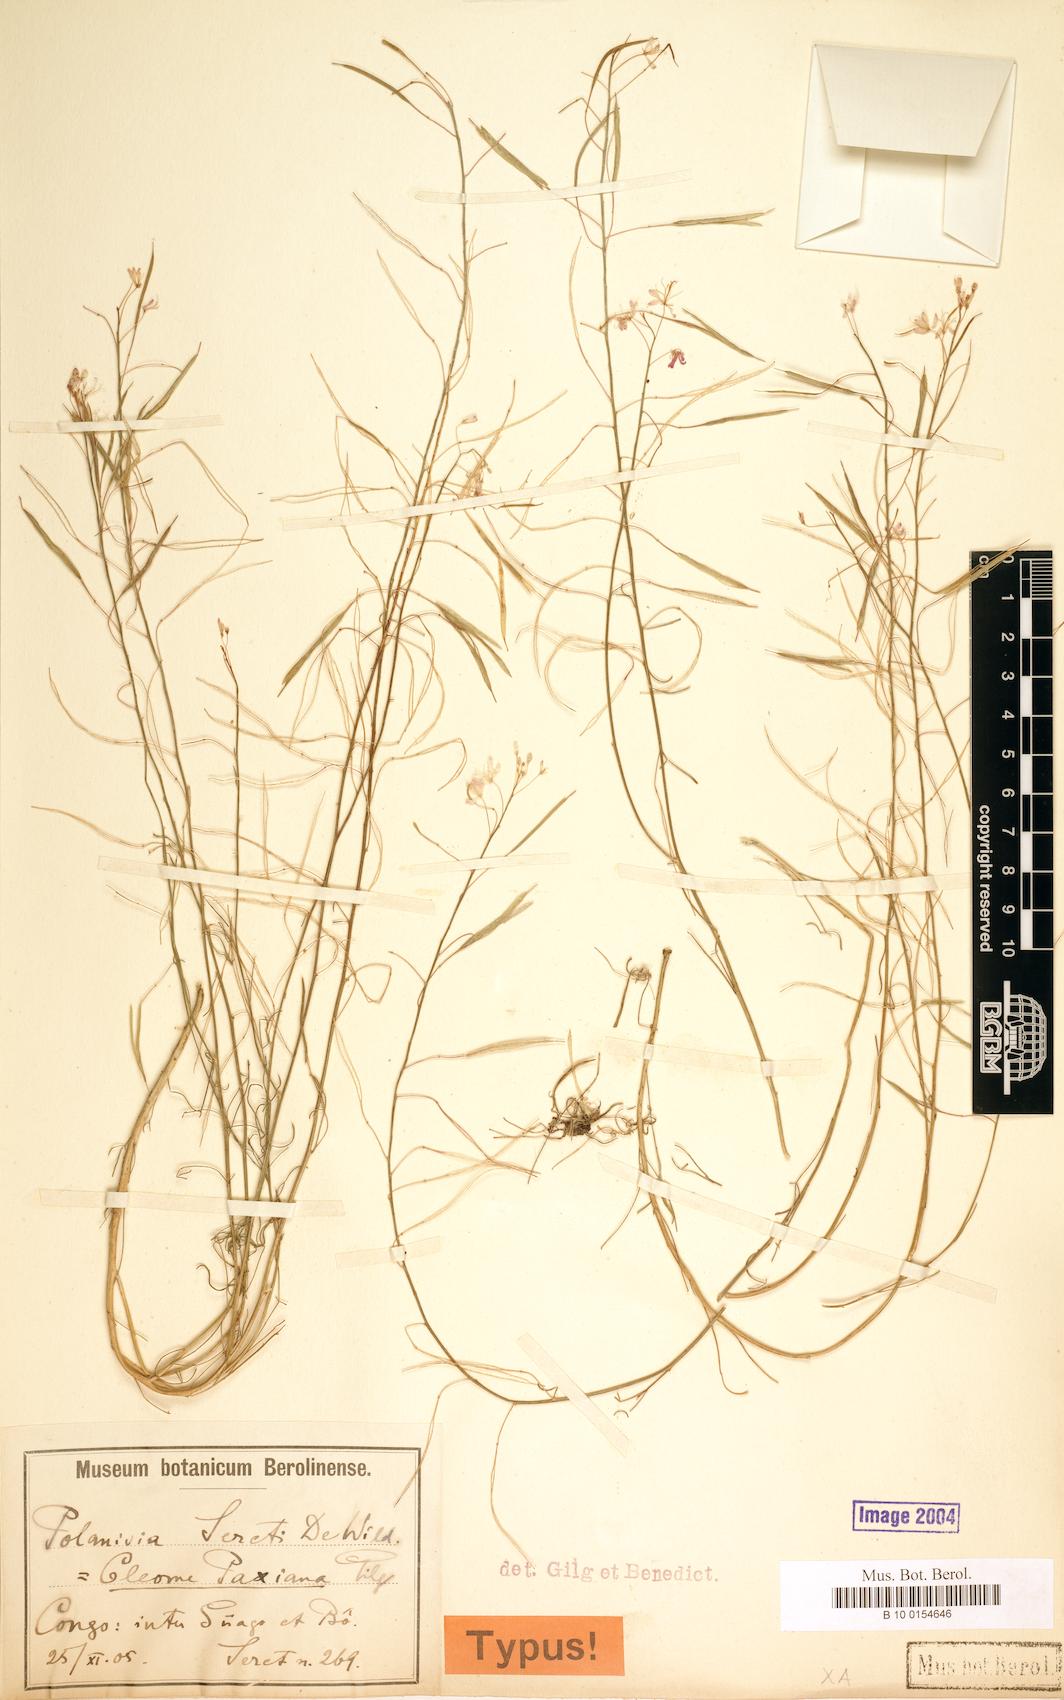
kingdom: Plantae
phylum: Tracheophyta
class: Magnoliopsida
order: Brassicales
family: Cleomaceae
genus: Coalisina
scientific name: Coalisina polyanthera
